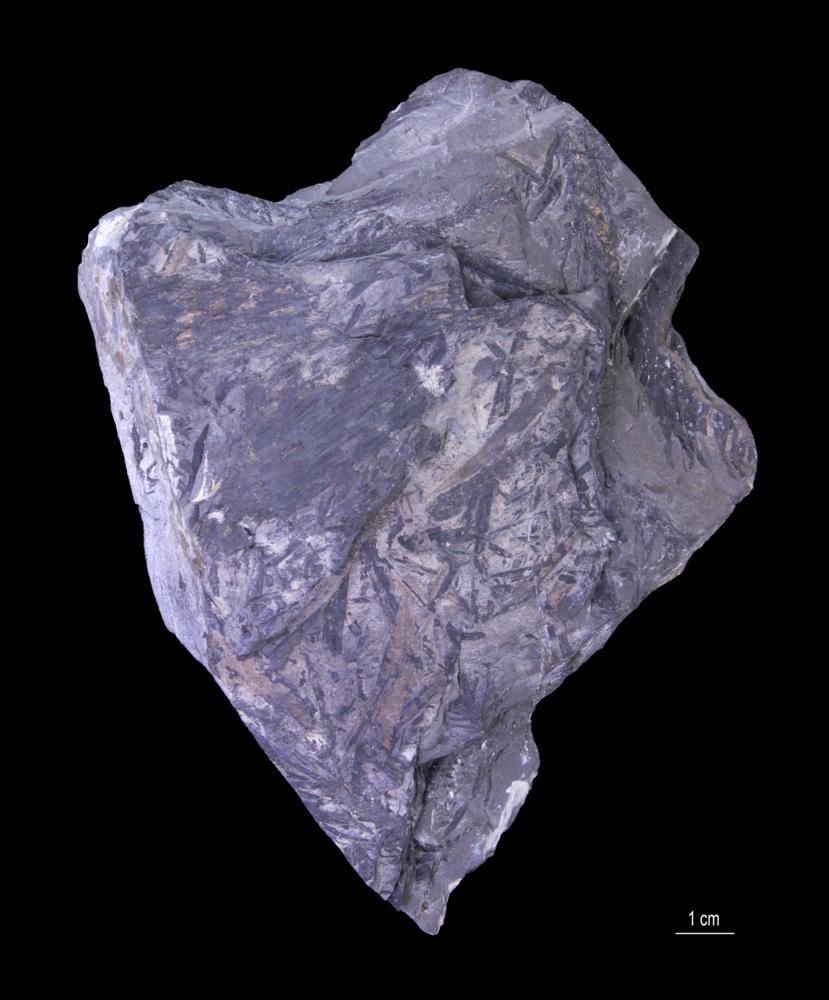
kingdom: Plantae
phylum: Tracheophyta
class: Lycopodiopsida
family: Lepidodendraceae
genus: Lepidodendron
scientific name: Lepidodendron
